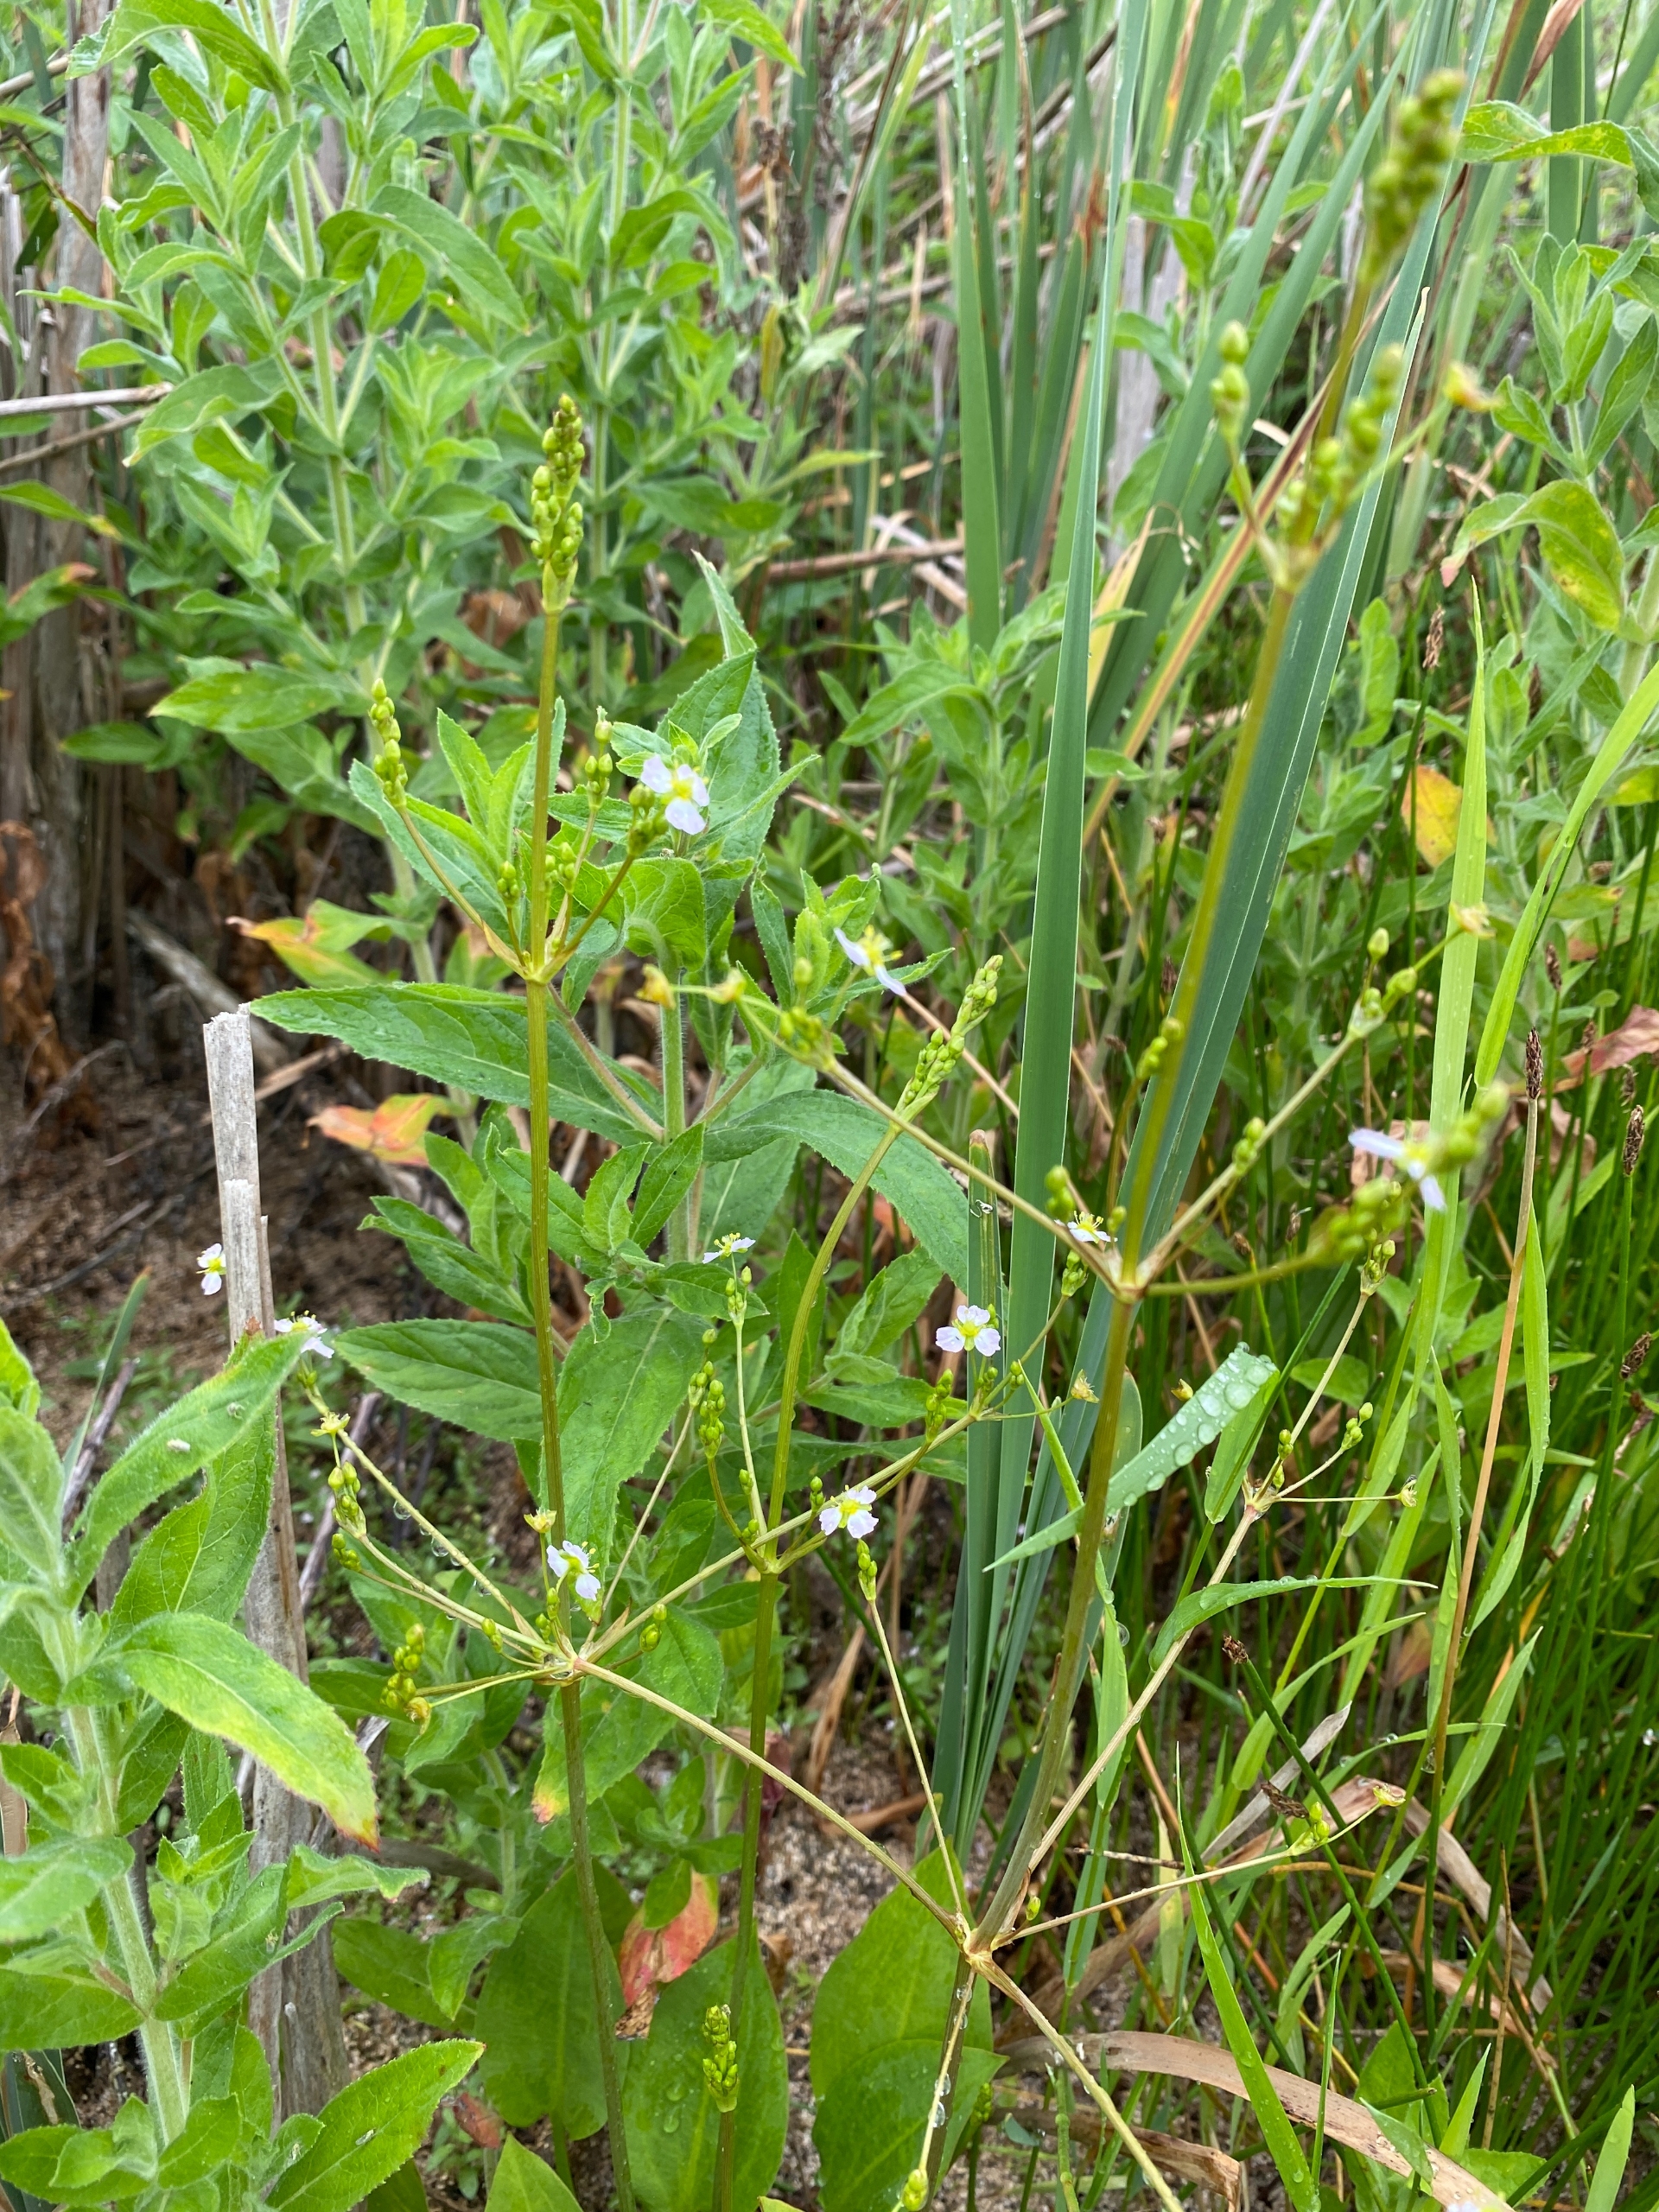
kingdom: Plantae
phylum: Tracheophyta
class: Liliopsida
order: Alismatales
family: Alismataceae
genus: Alisma
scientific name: Alisma plantago-aquatica
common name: Vejbred-skeblad
